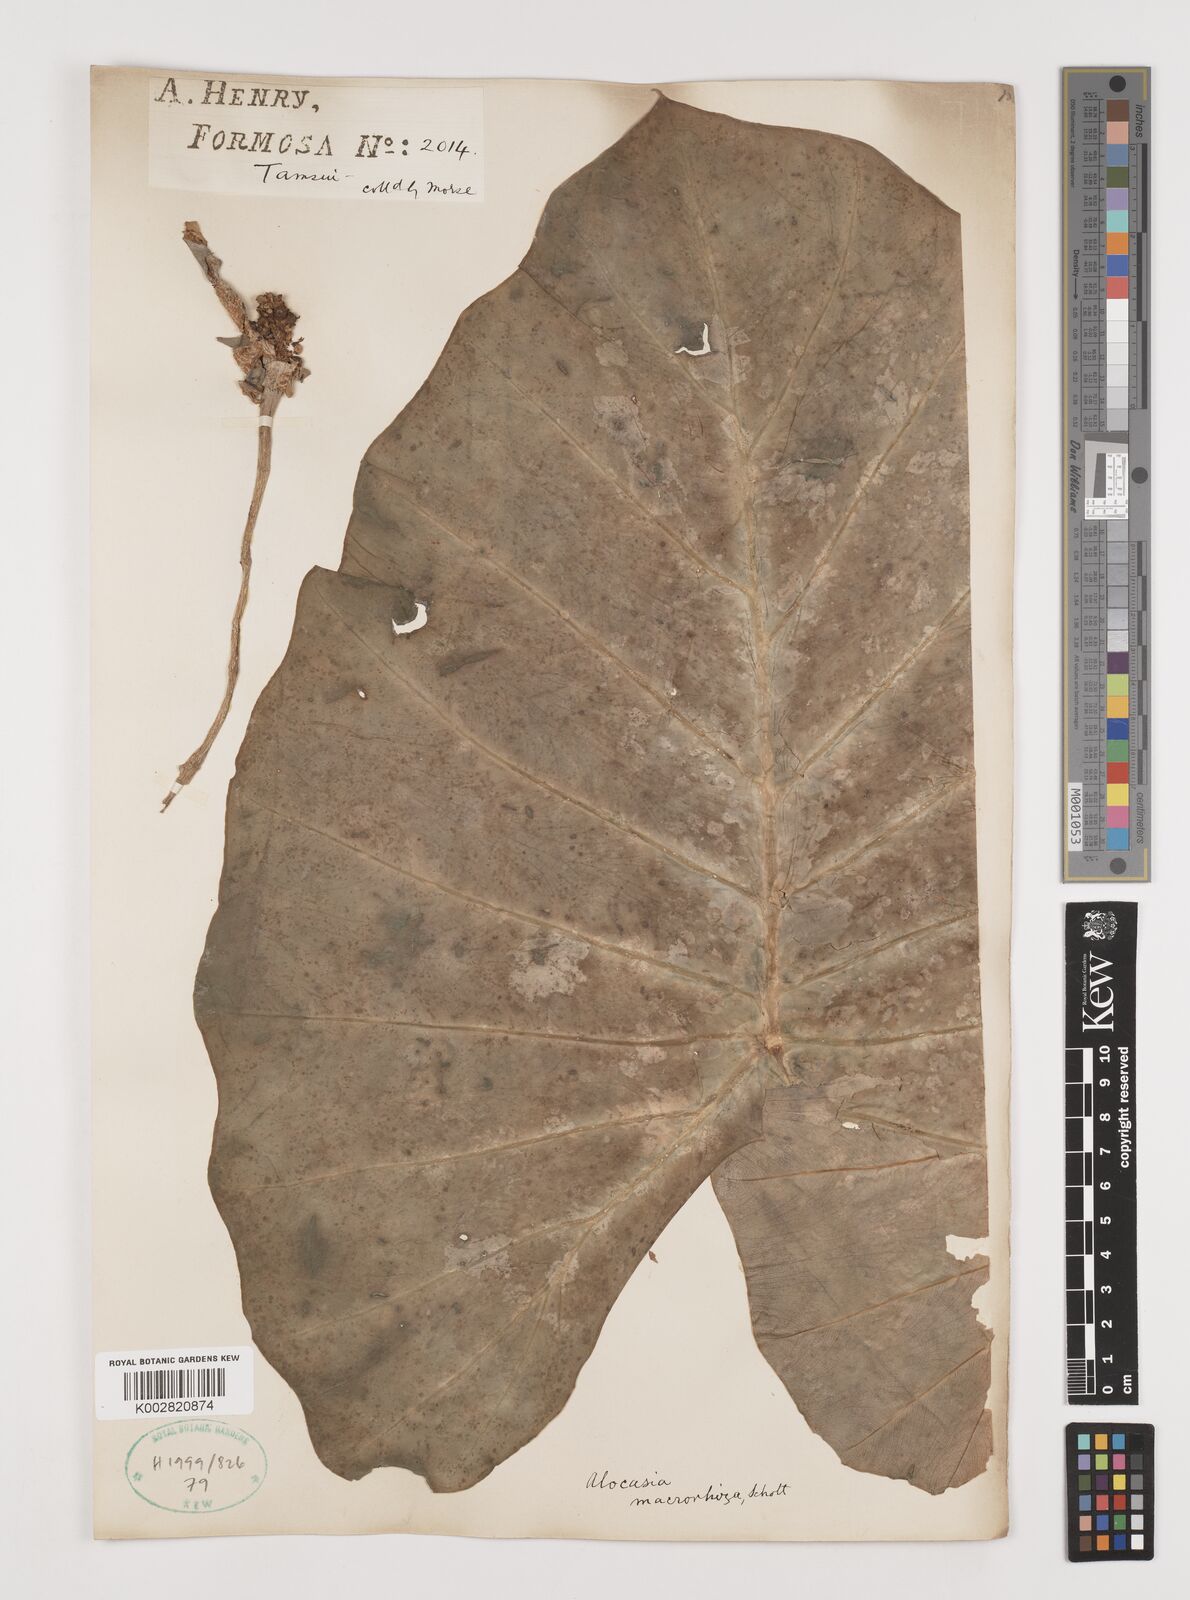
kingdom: Plantae
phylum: Tracheophyta
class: Liliopsida
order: Alismatales
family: Araceae
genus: Alocasia
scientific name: Alocasia macrorrhizos
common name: Giant taro
